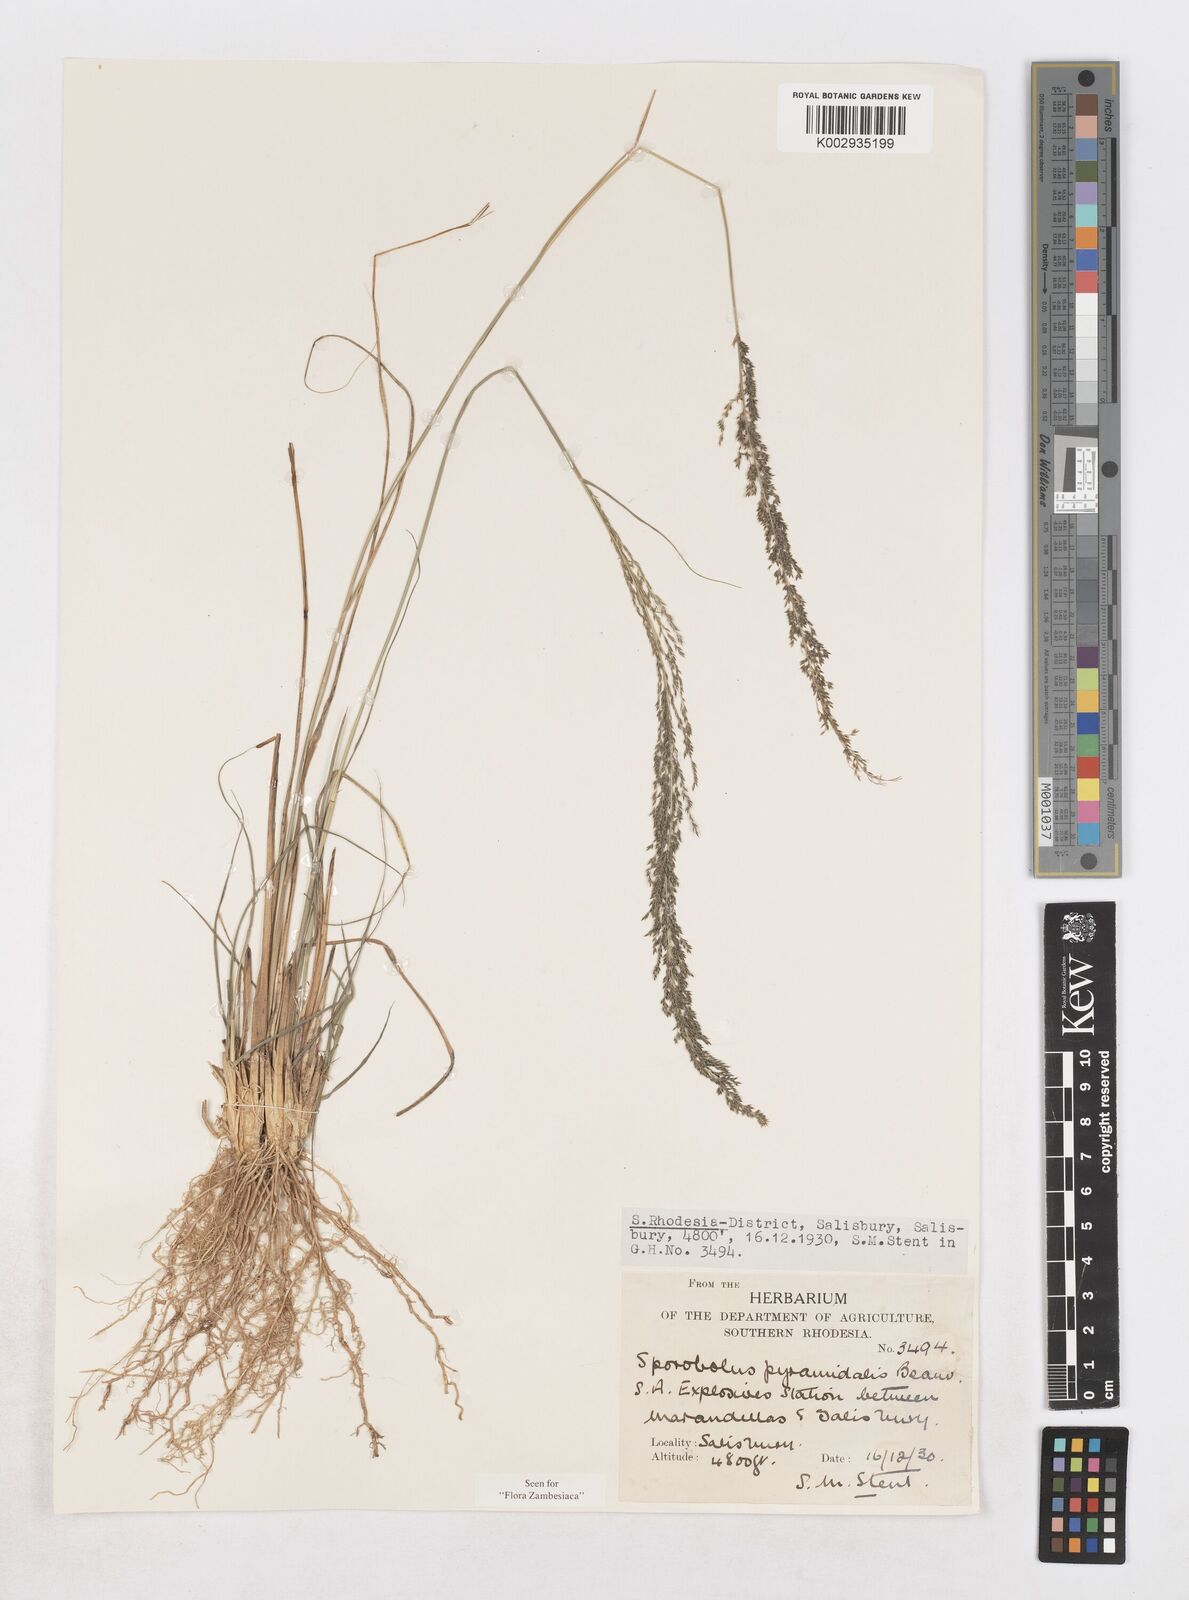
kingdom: Plantae
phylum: Tracheophyta
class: Liliopsida
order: Poales
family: Poaceae
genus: Sporobolus
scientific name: Sporobolus pyramidalis
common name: West indian dropseed
